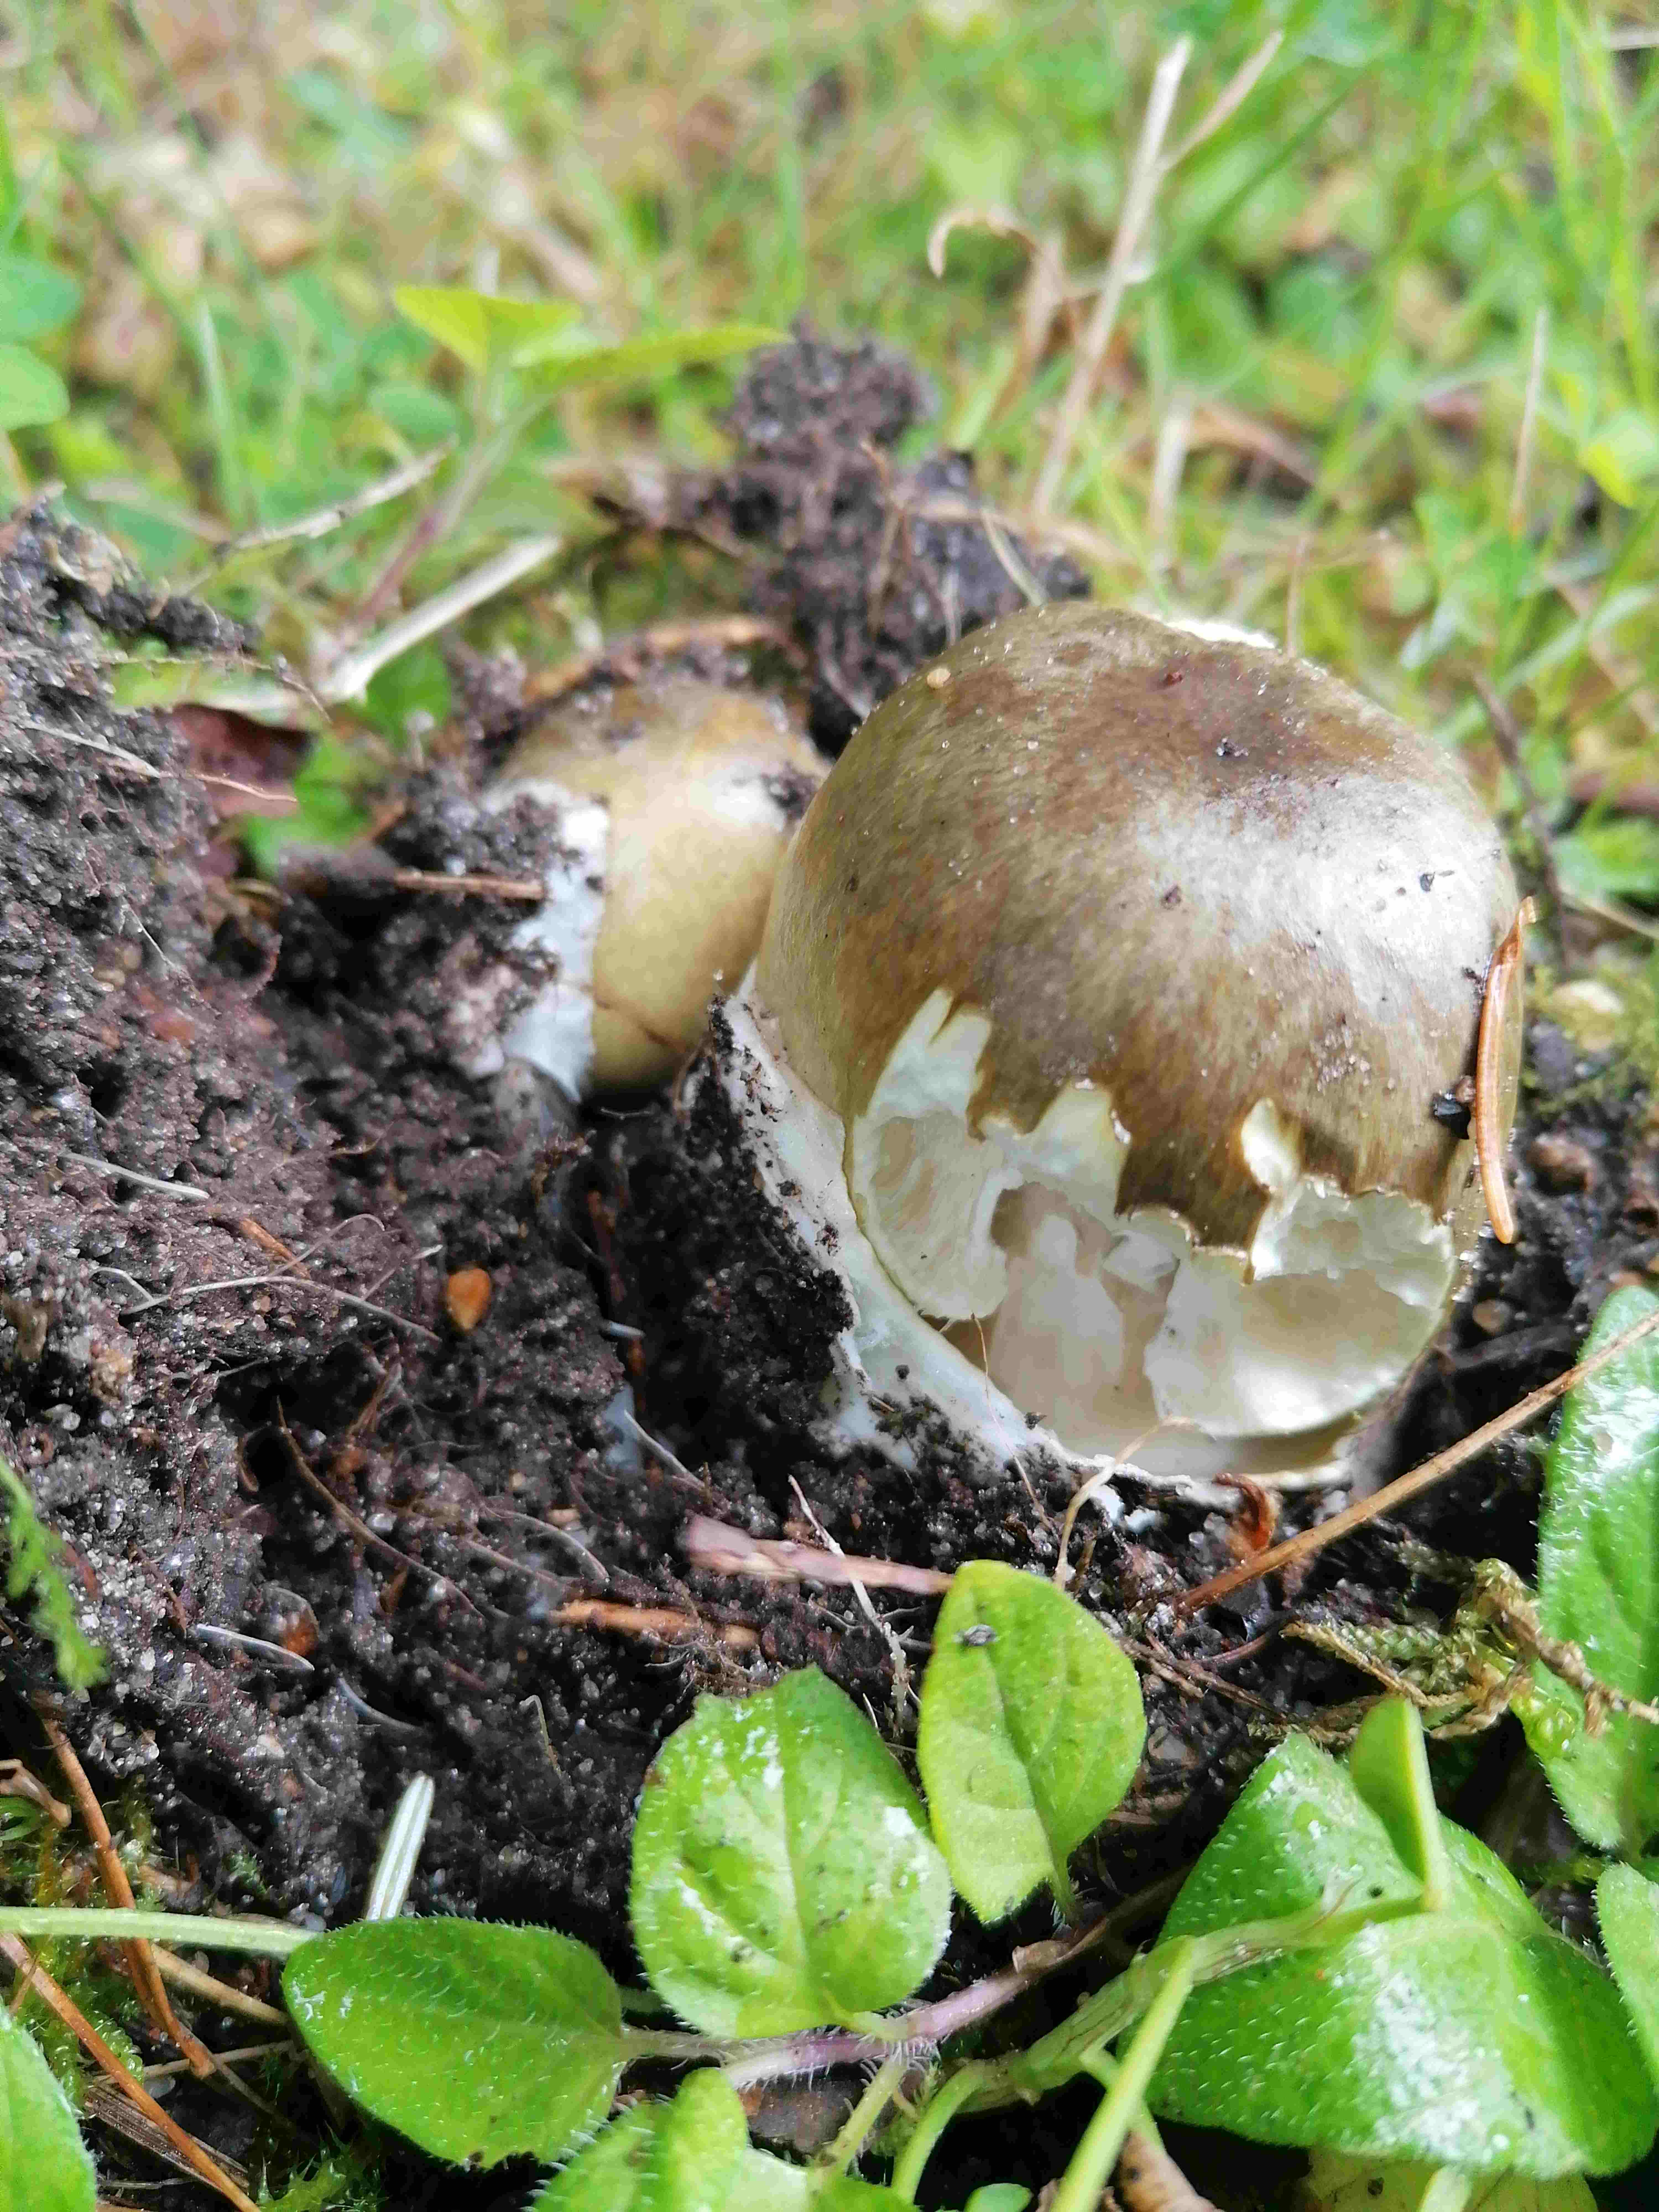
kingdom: Fungi
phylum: Basidiomycota
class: Agaricomycetes
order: Agaricales
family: Amanitaceae
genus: Amanita
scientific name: Amanita phalloides
